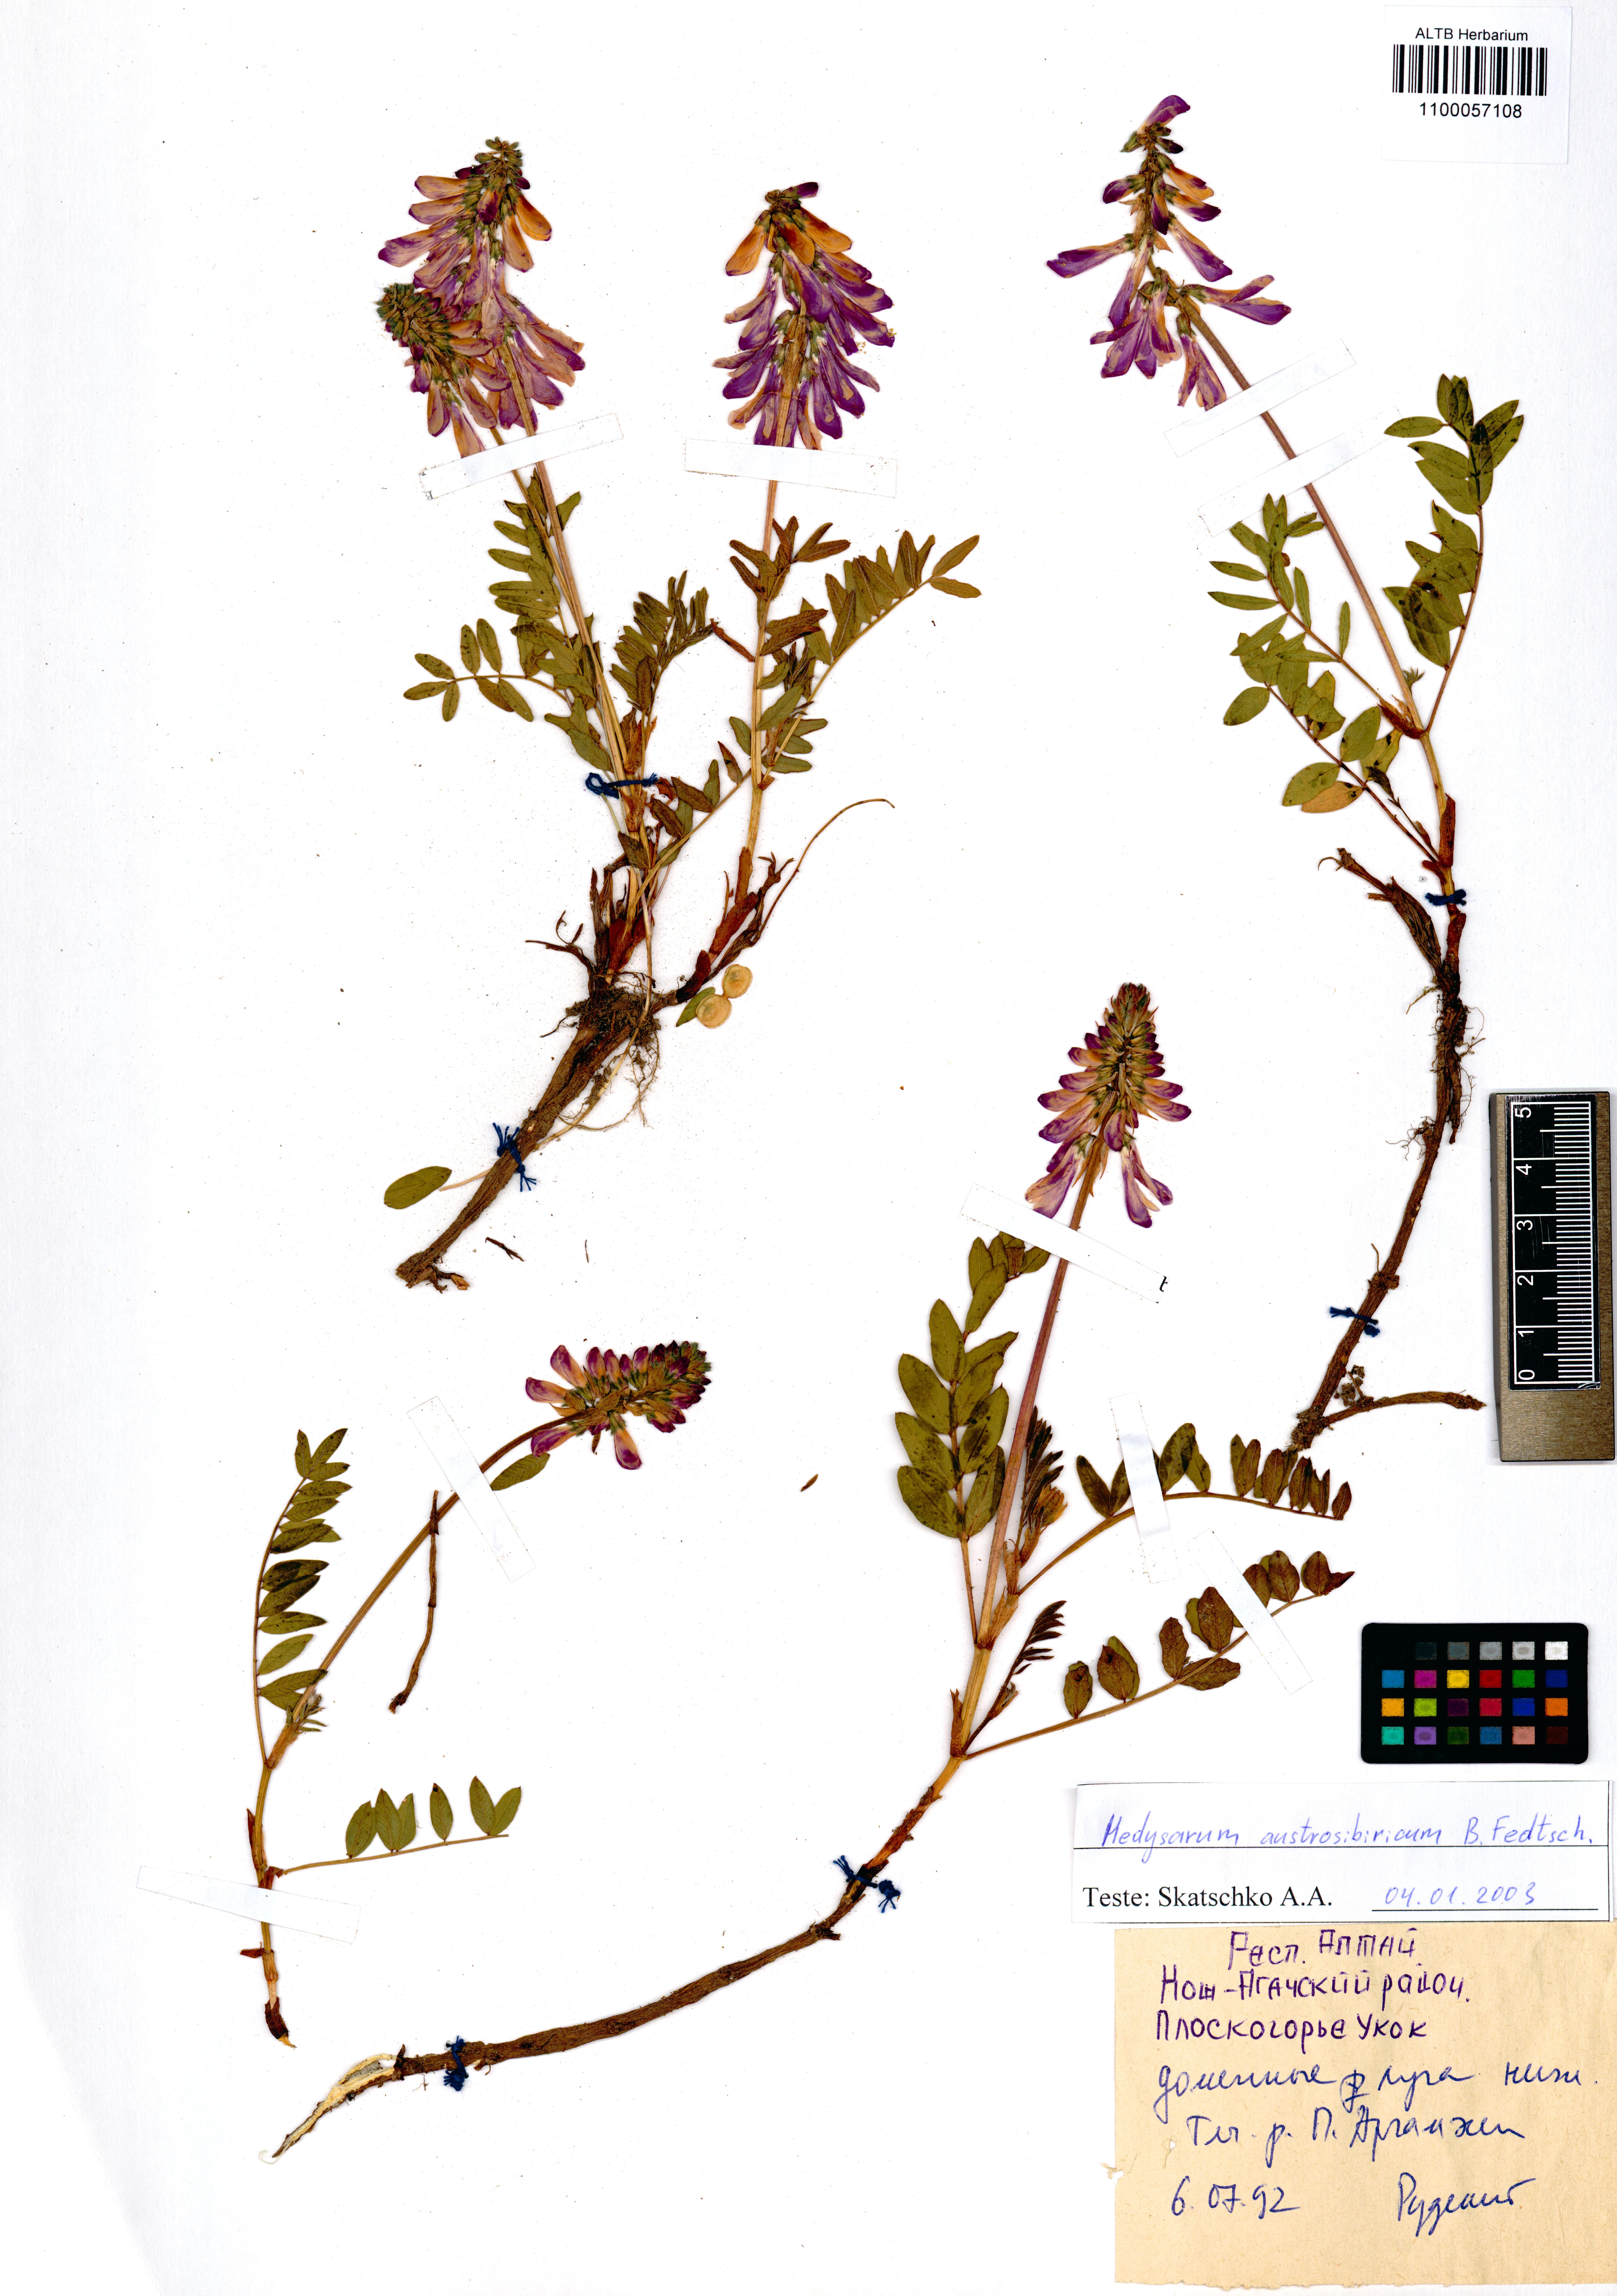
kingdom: Plantae
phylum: Tracheophyta
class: Magnoliopsida
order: Fabales
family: Fabaceae
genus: Hedysarum
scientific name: Hedysarum neglectum
